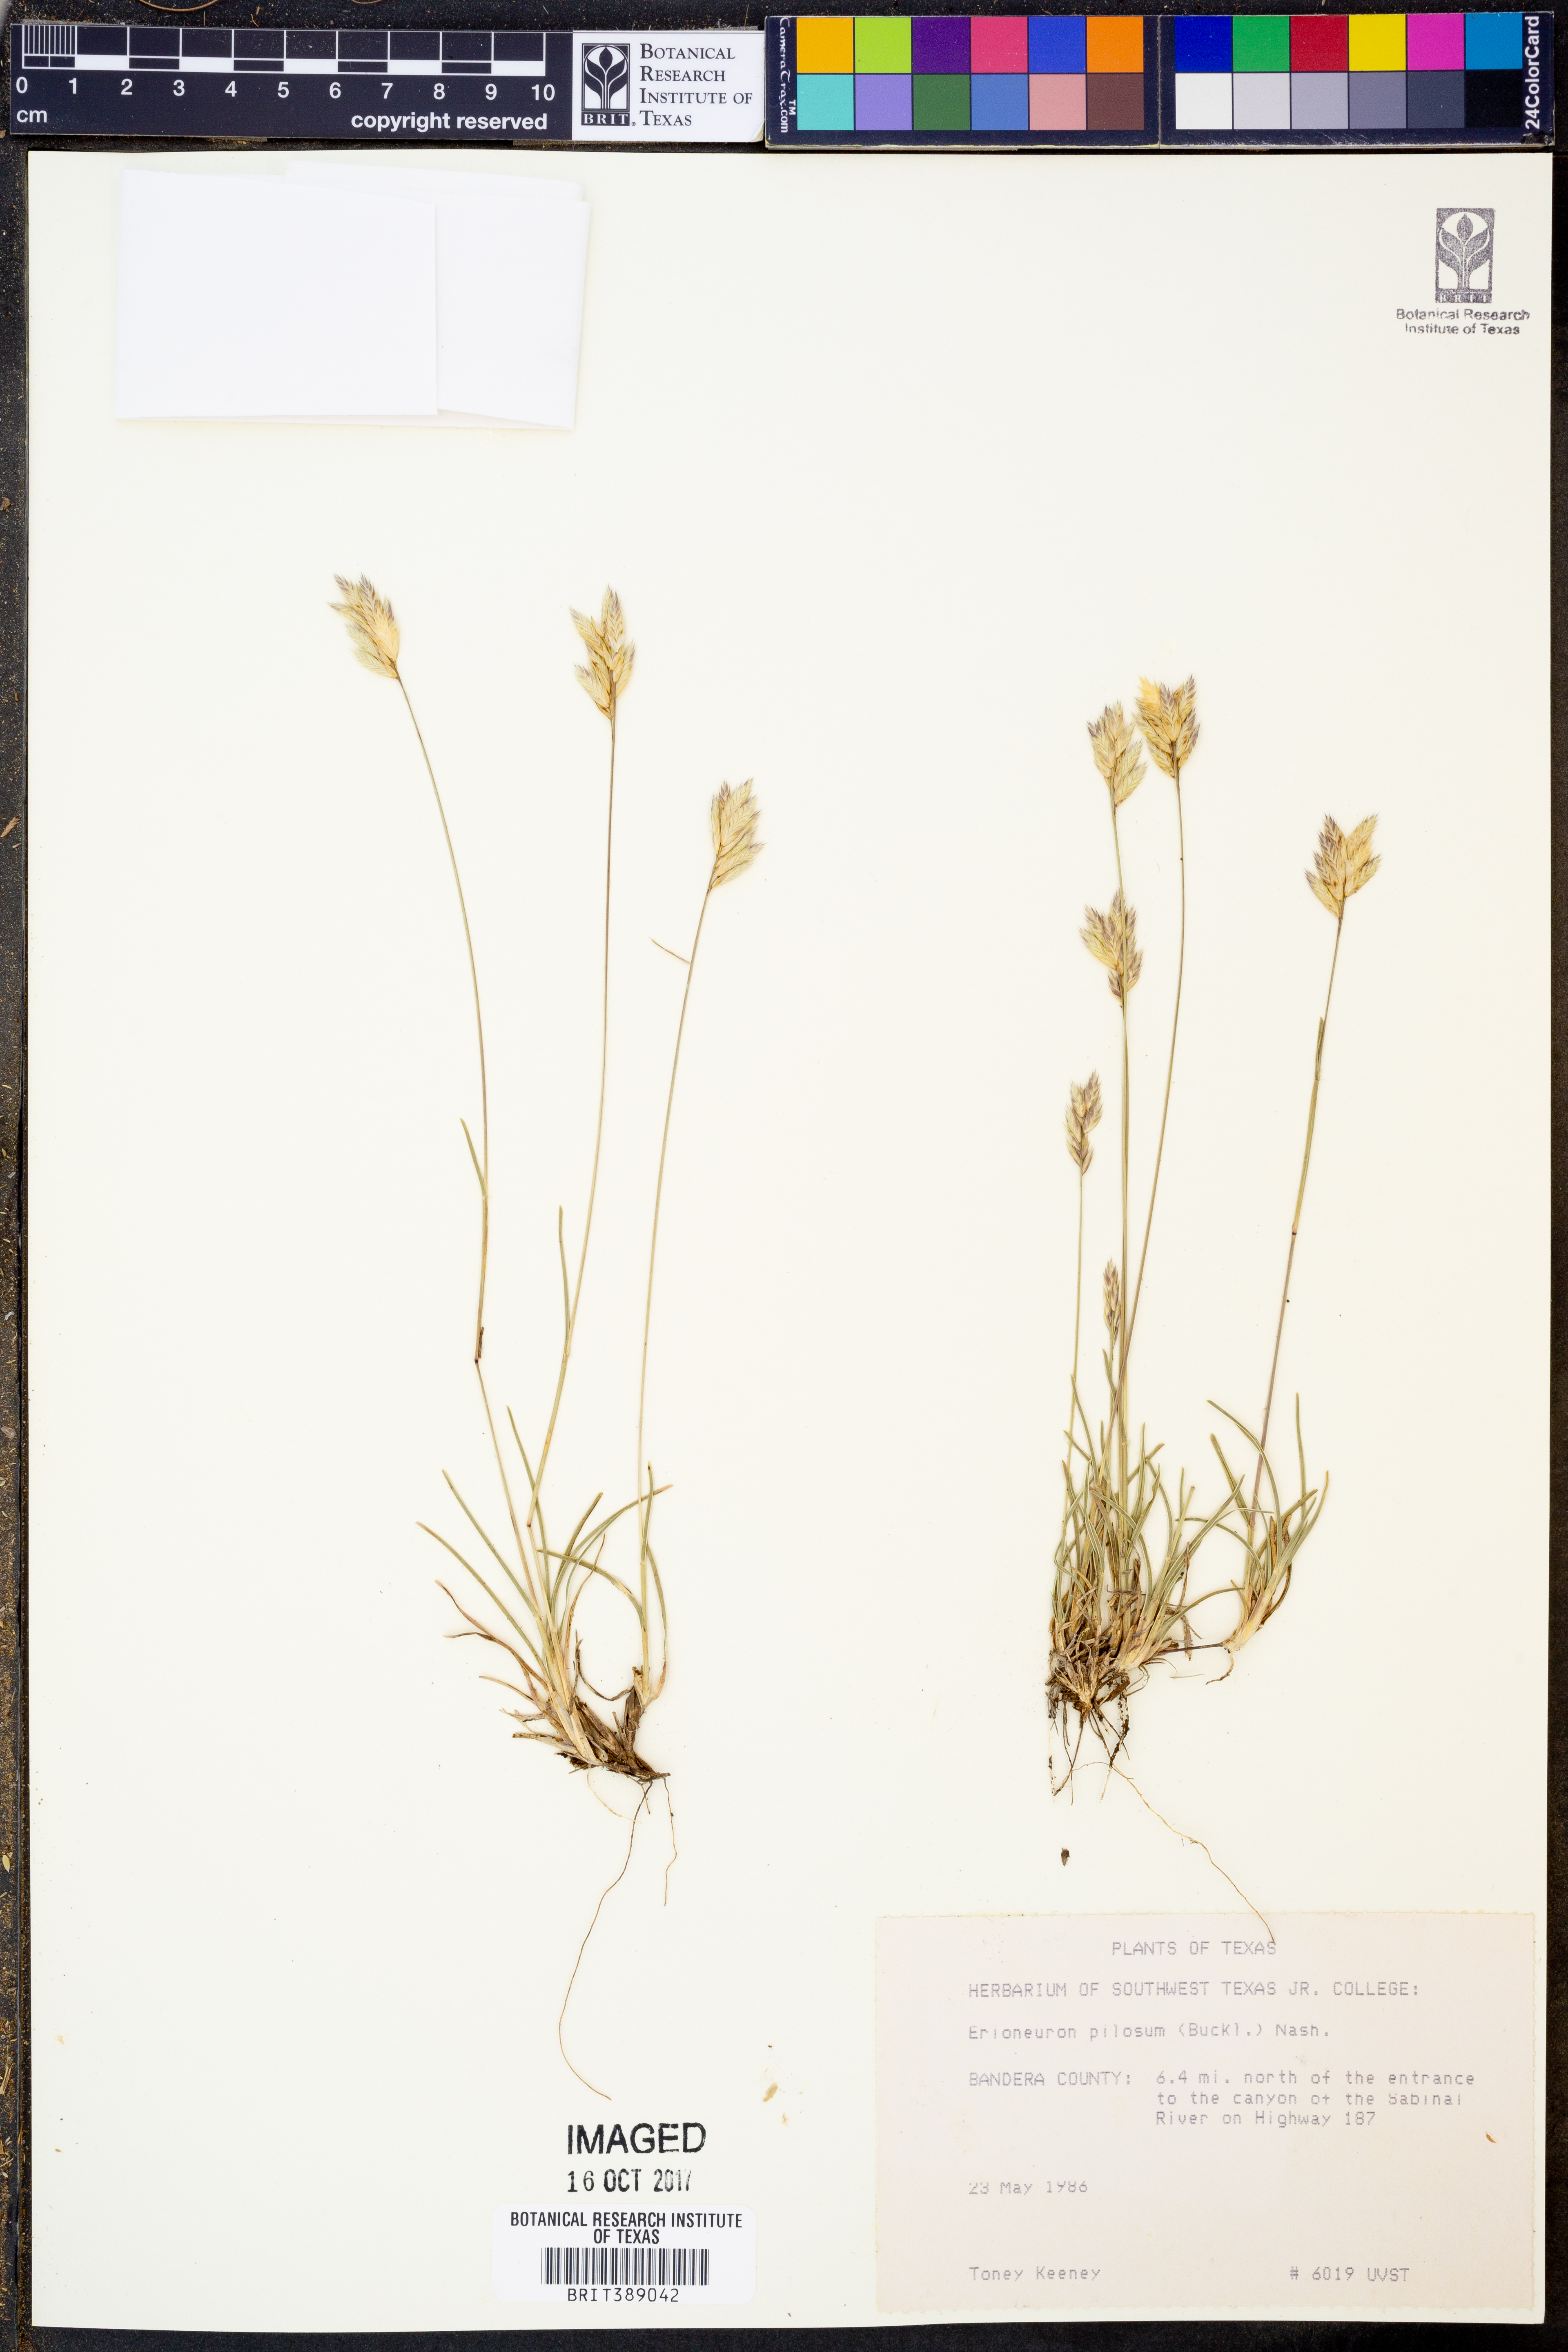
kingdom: Plantae
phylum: Tracheophyta
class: Liliopsida
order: Poales
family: Poaceae
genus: Erioneuron
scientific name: Erioneuron pilosum
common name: Hairy woolly grass
